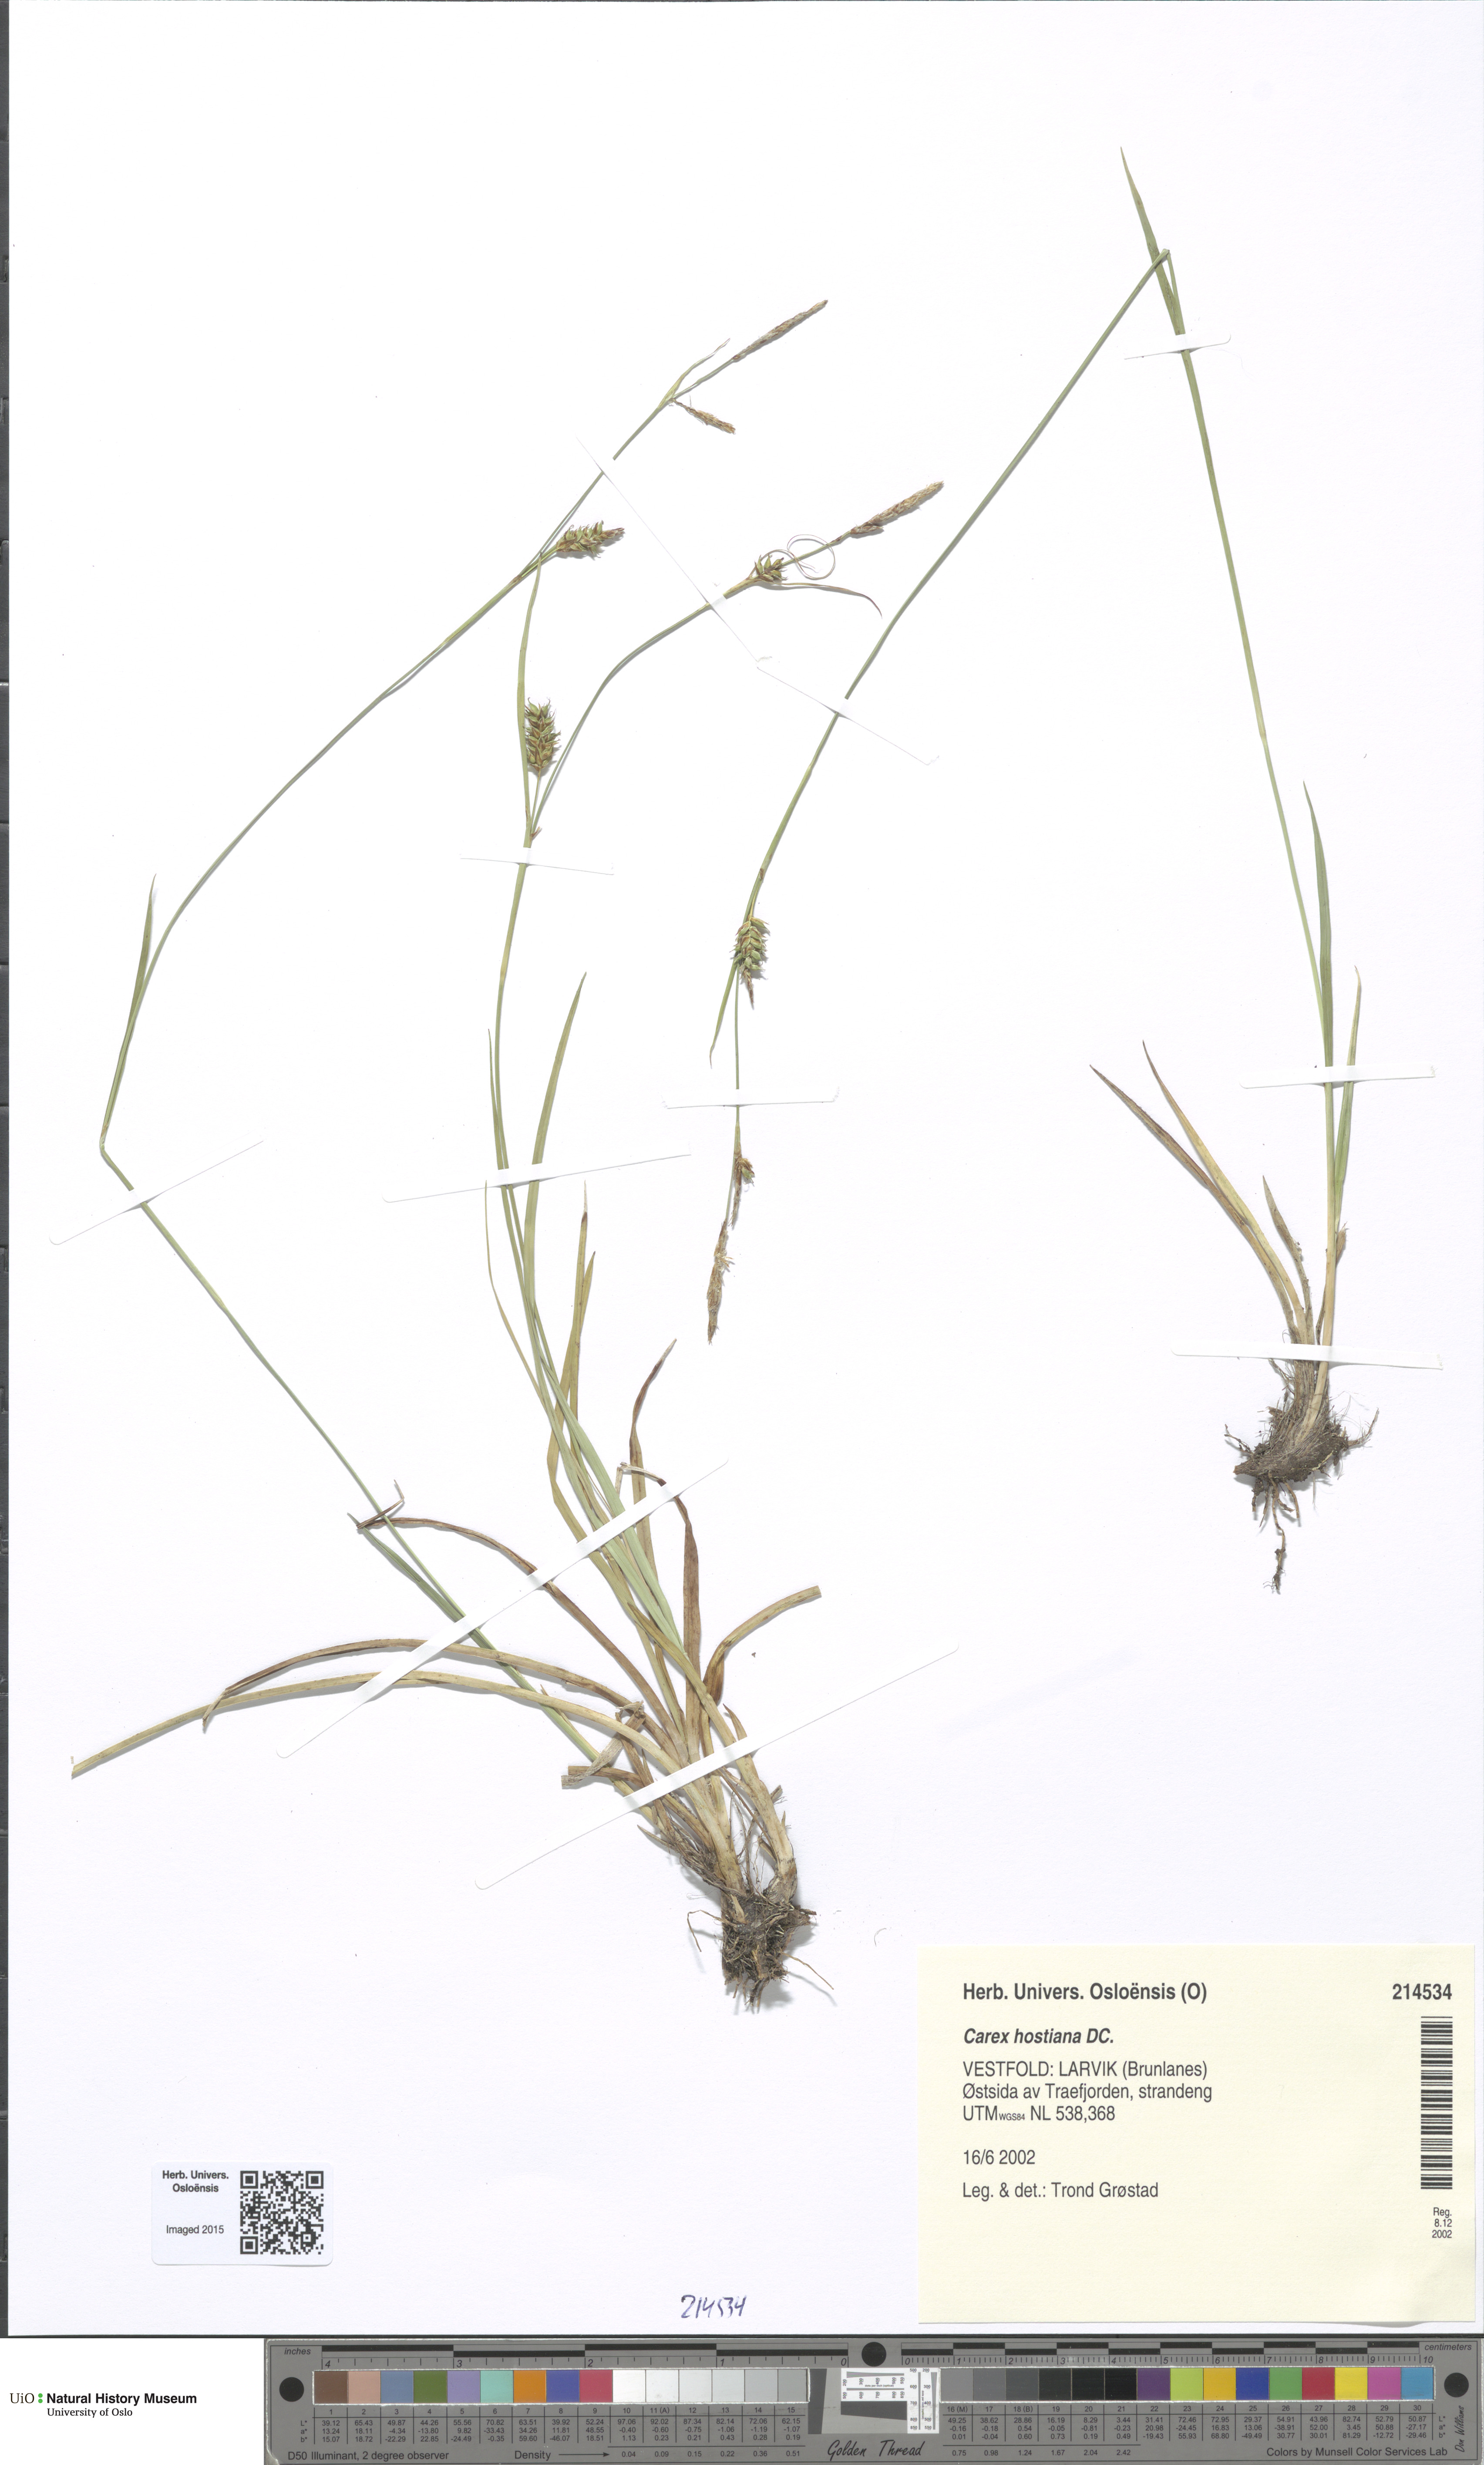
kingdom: Plantae
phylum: Tracheophyta
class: Liliopsida
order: Poales
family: Cyperaceae
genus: Carex
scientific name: Carex hostiana
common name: Tawny sedge
